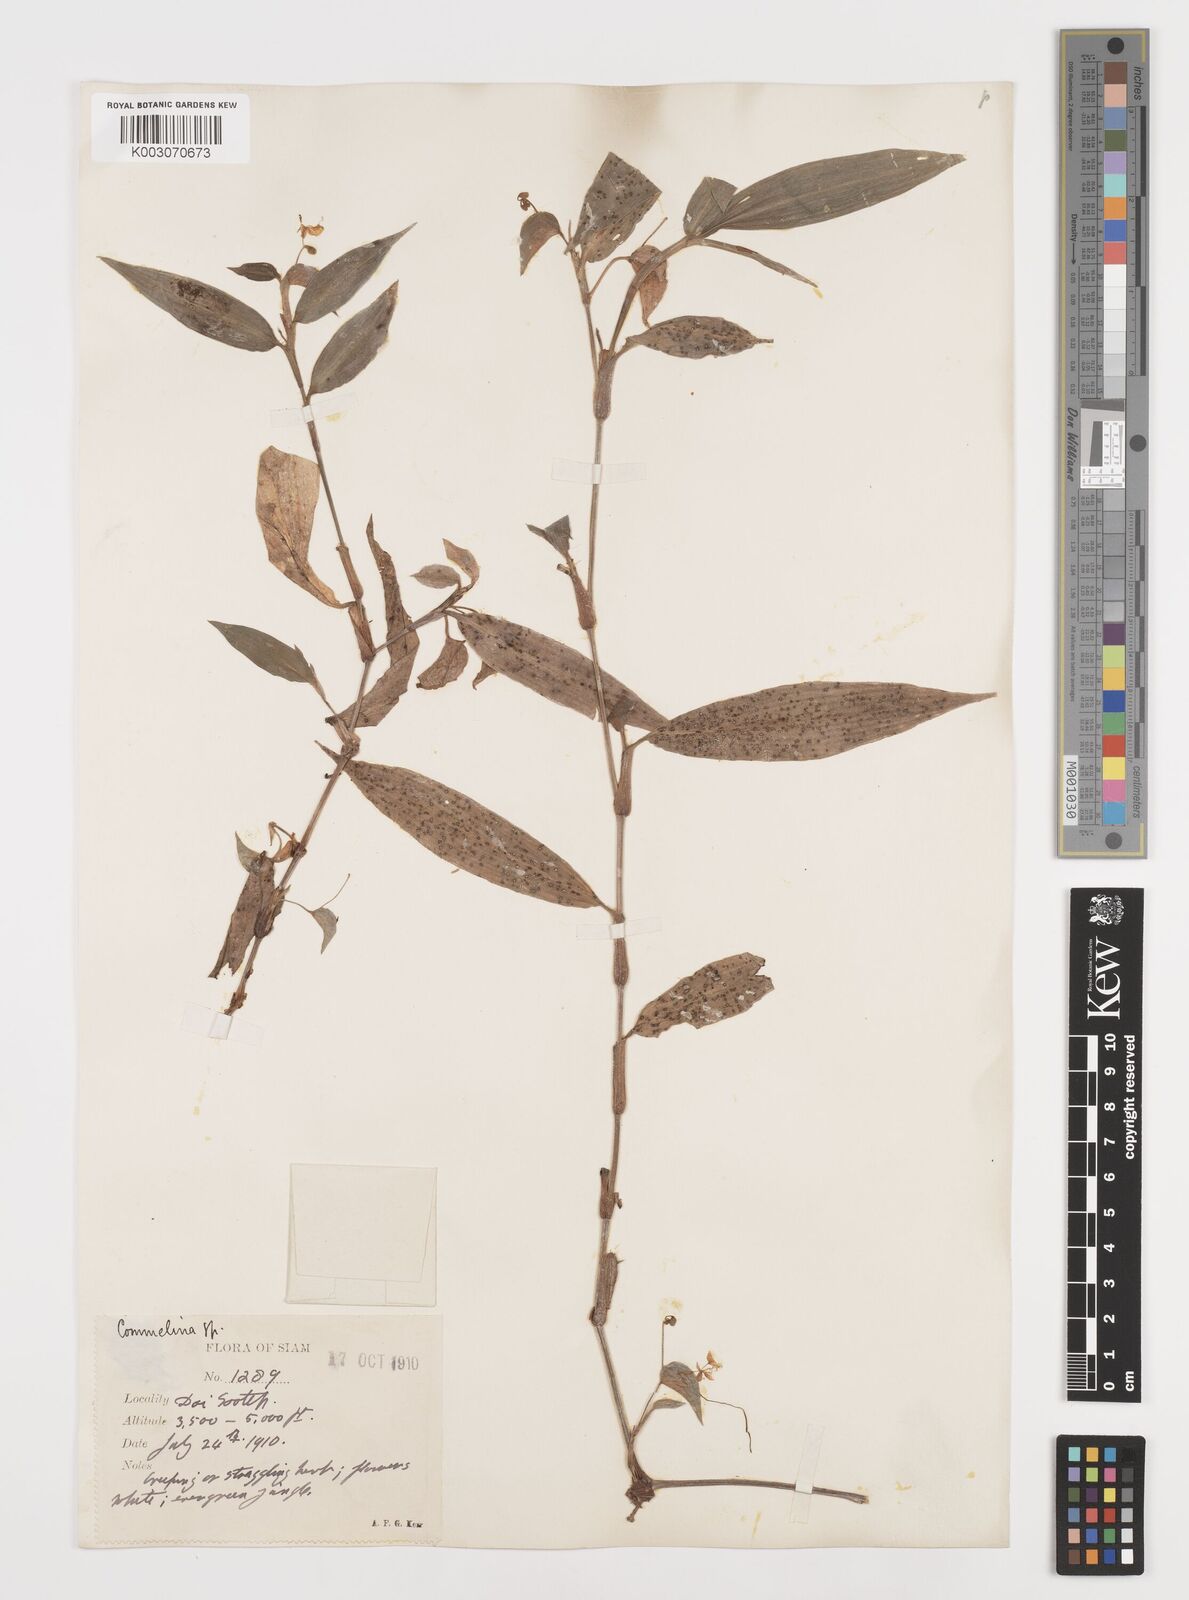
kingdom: Plantae
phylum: Tracheophyta
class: Liliopsida
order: Commelinales
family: Commelinaceae
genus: Commelina
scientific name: Commelina
